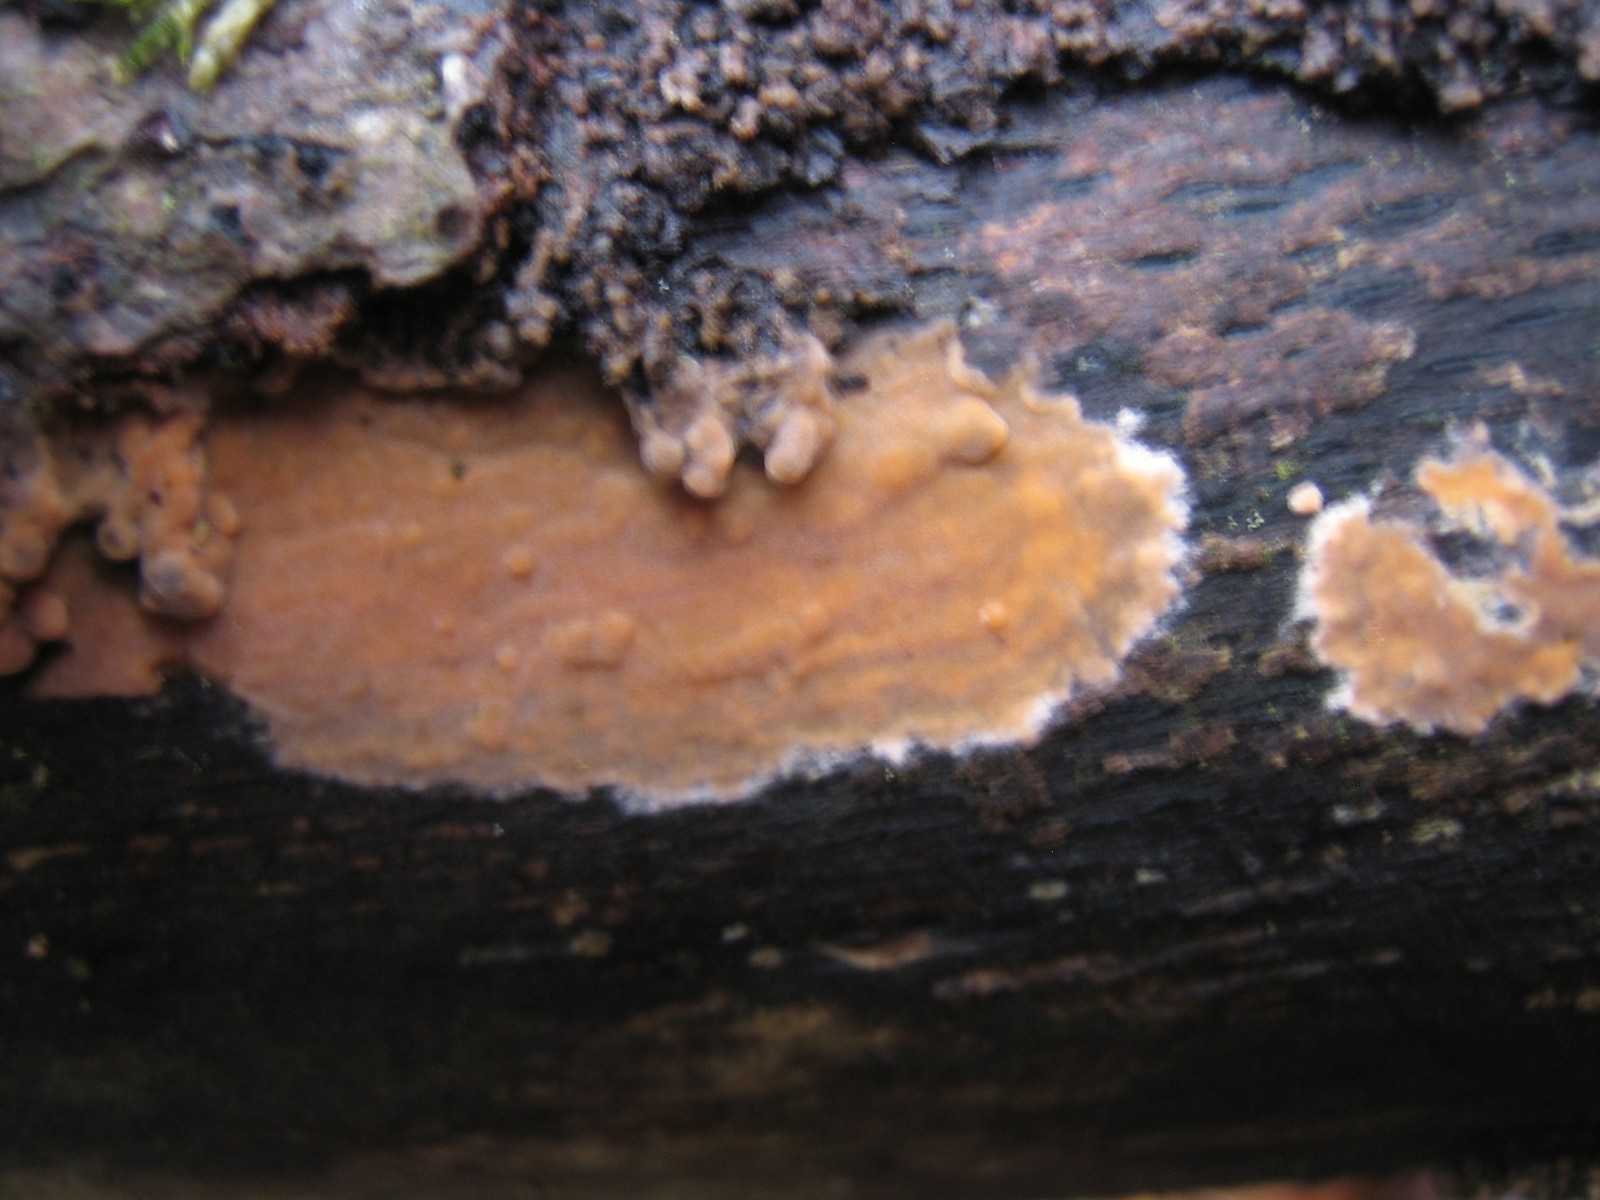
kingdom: Fungi
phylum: Basidiomycota
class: Agaricomycetes
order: Russulales
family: Peniophoraceae
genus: Peniophora
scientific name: Peniophora incarnata
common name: laksefarvet voksskind
